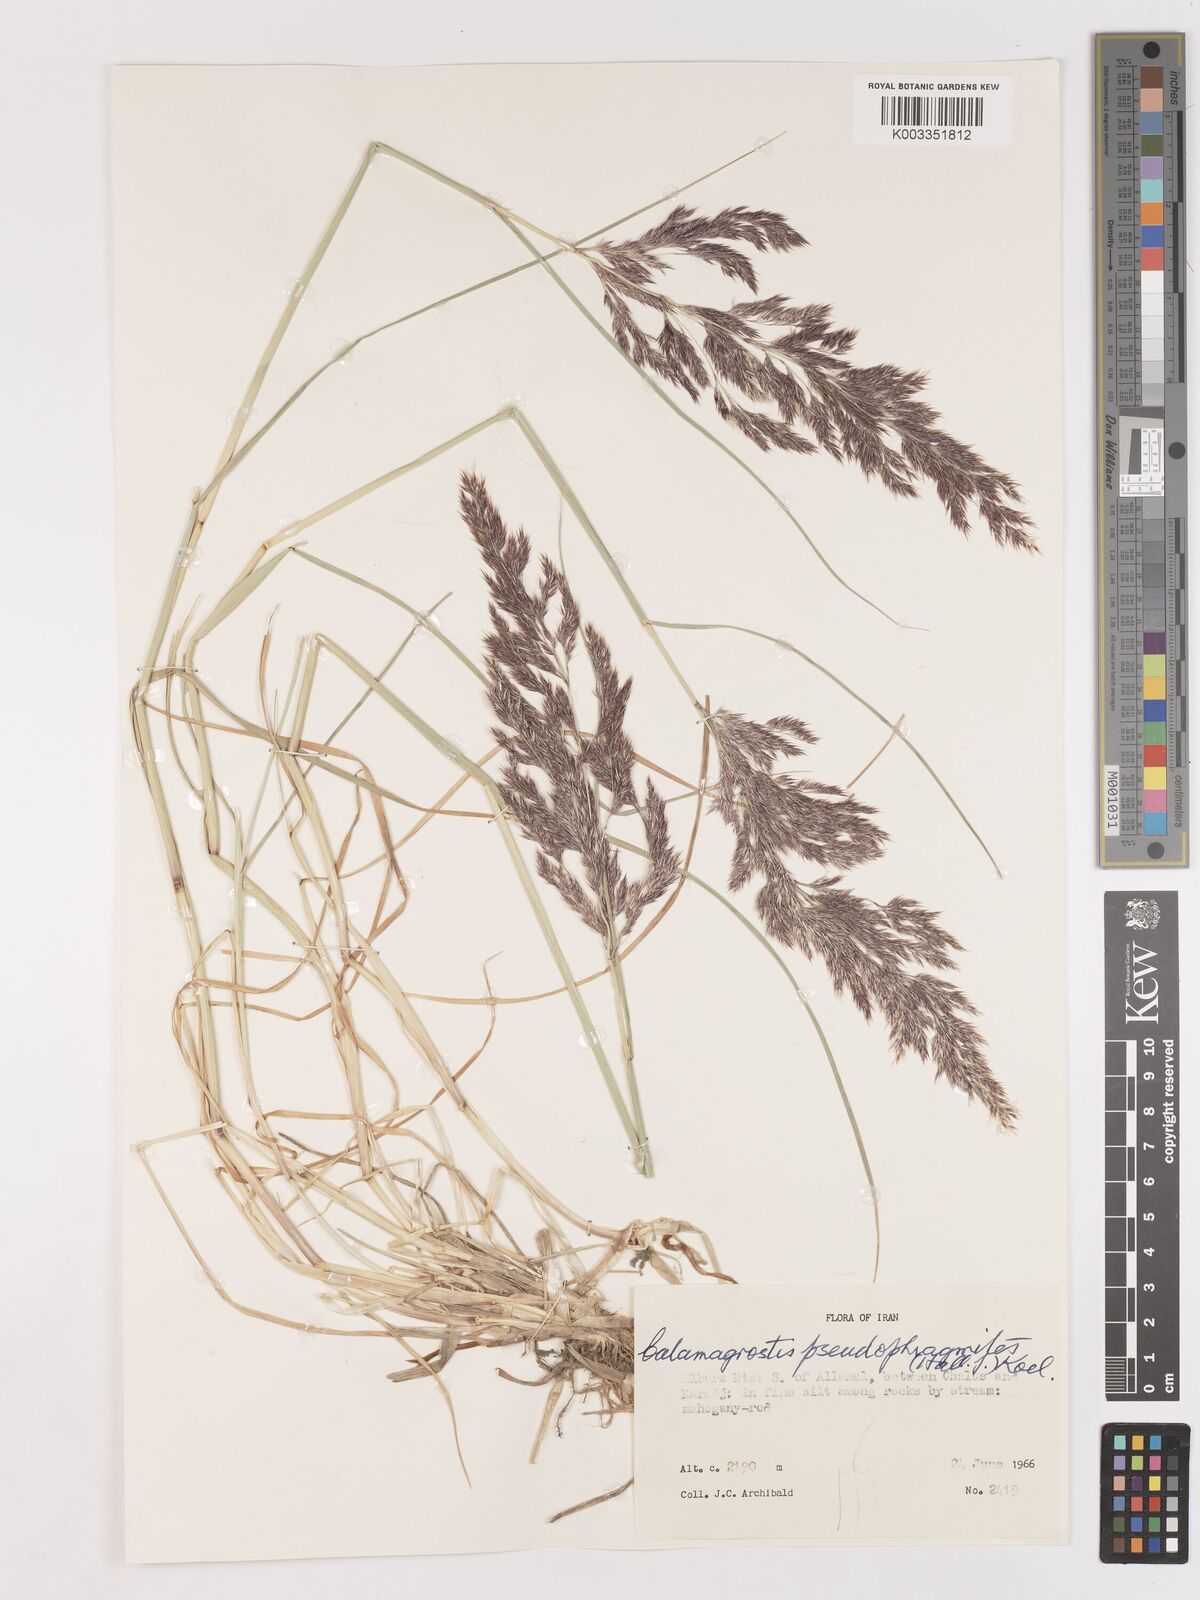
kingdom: Plantae
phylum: Tracheophyta
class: Liliopsida
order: Poales
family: Poaceae
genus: Calamagrostis
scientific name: Calamagrostis pseudophragmites
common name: Coastal small-reed
